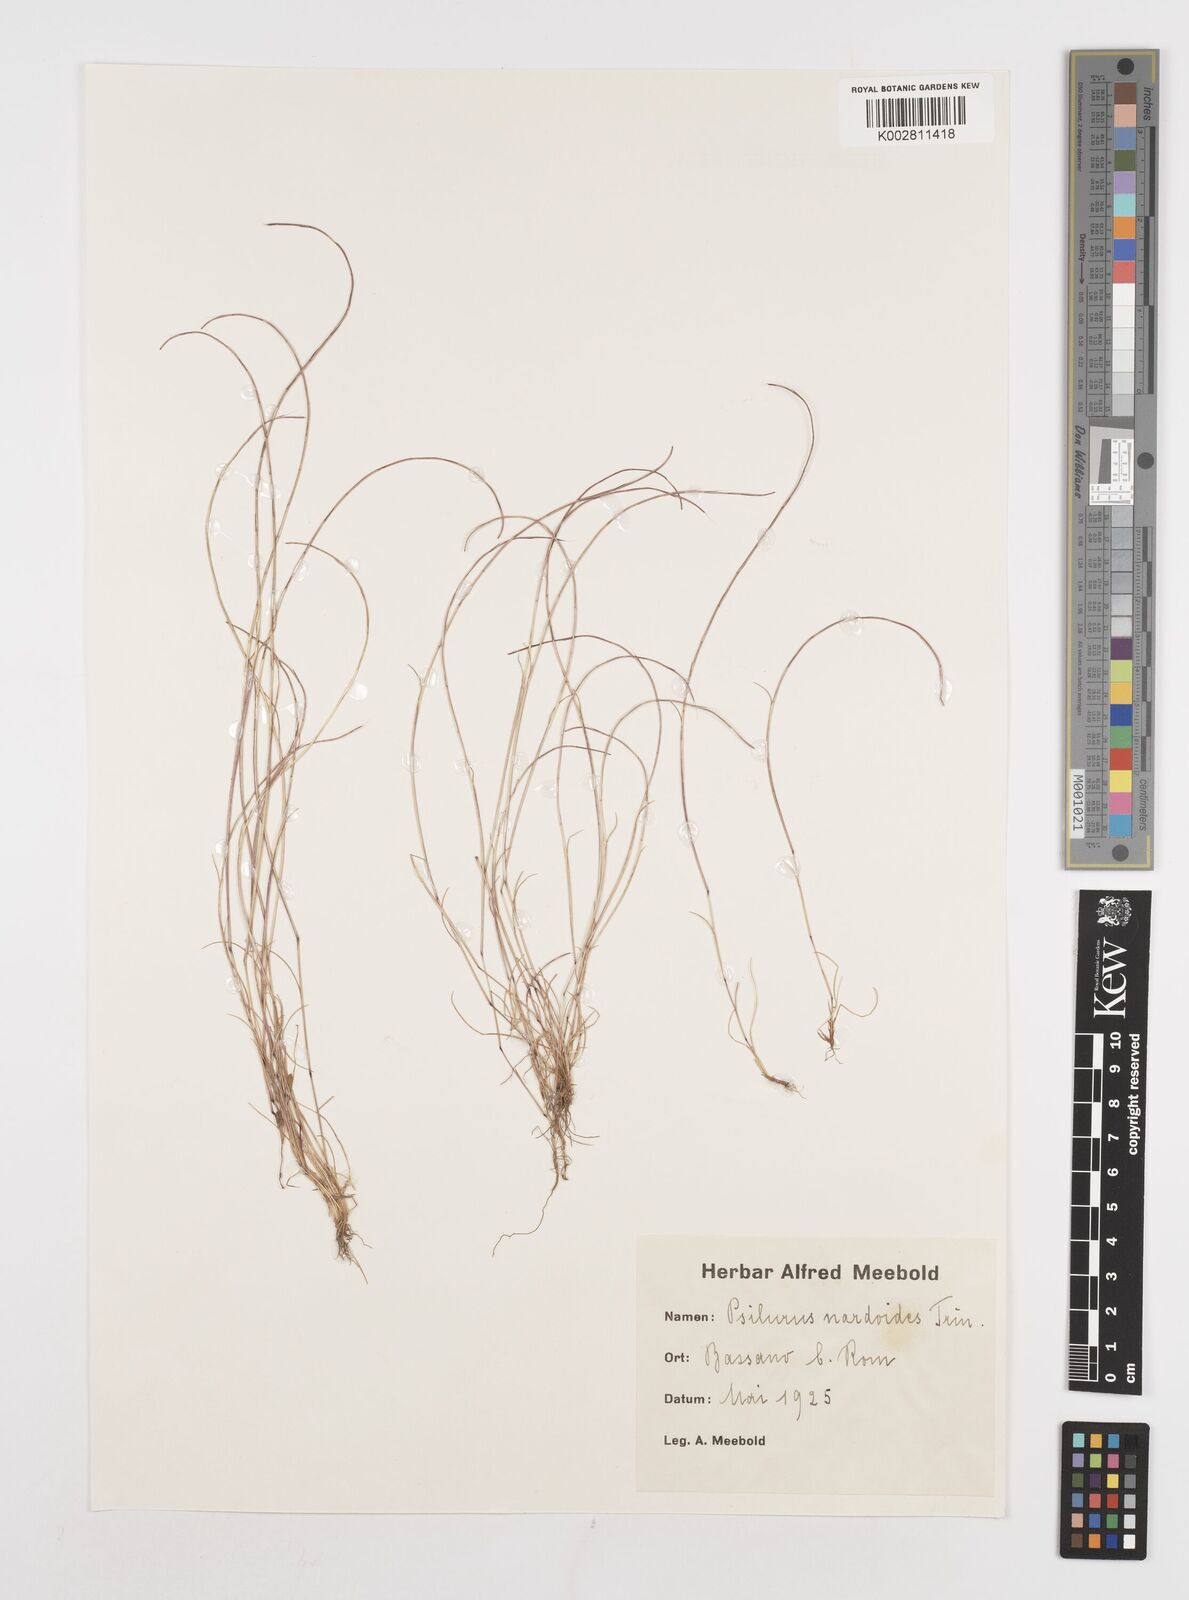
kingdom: Plantae
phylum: Tracheophyta
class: Liliopsida
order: Poales
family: Poaceae
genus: Festuca
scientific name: Festuca incurva
